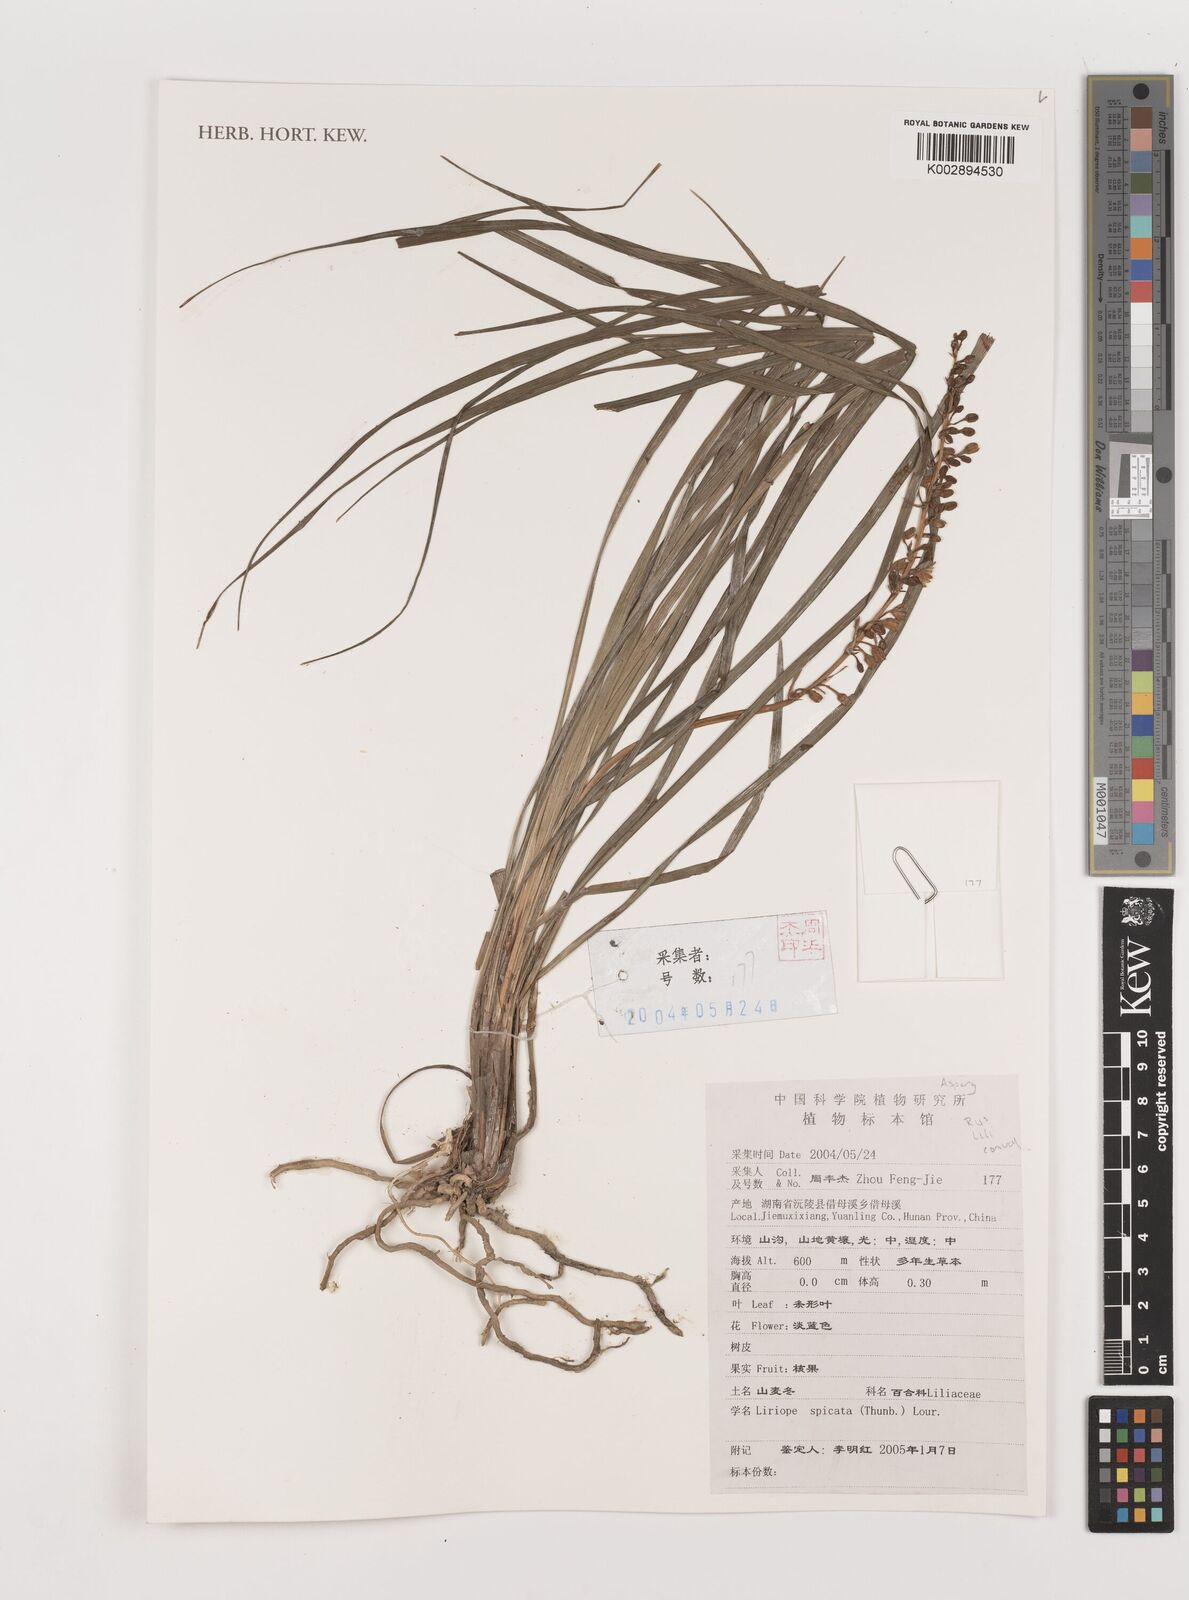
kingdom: Plantae
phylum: Tracheophyta
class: Liliopsida
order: Asparagales
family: Asparagaceae
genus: Liriope
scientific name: Liriope spicata
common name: Creeping liriope
